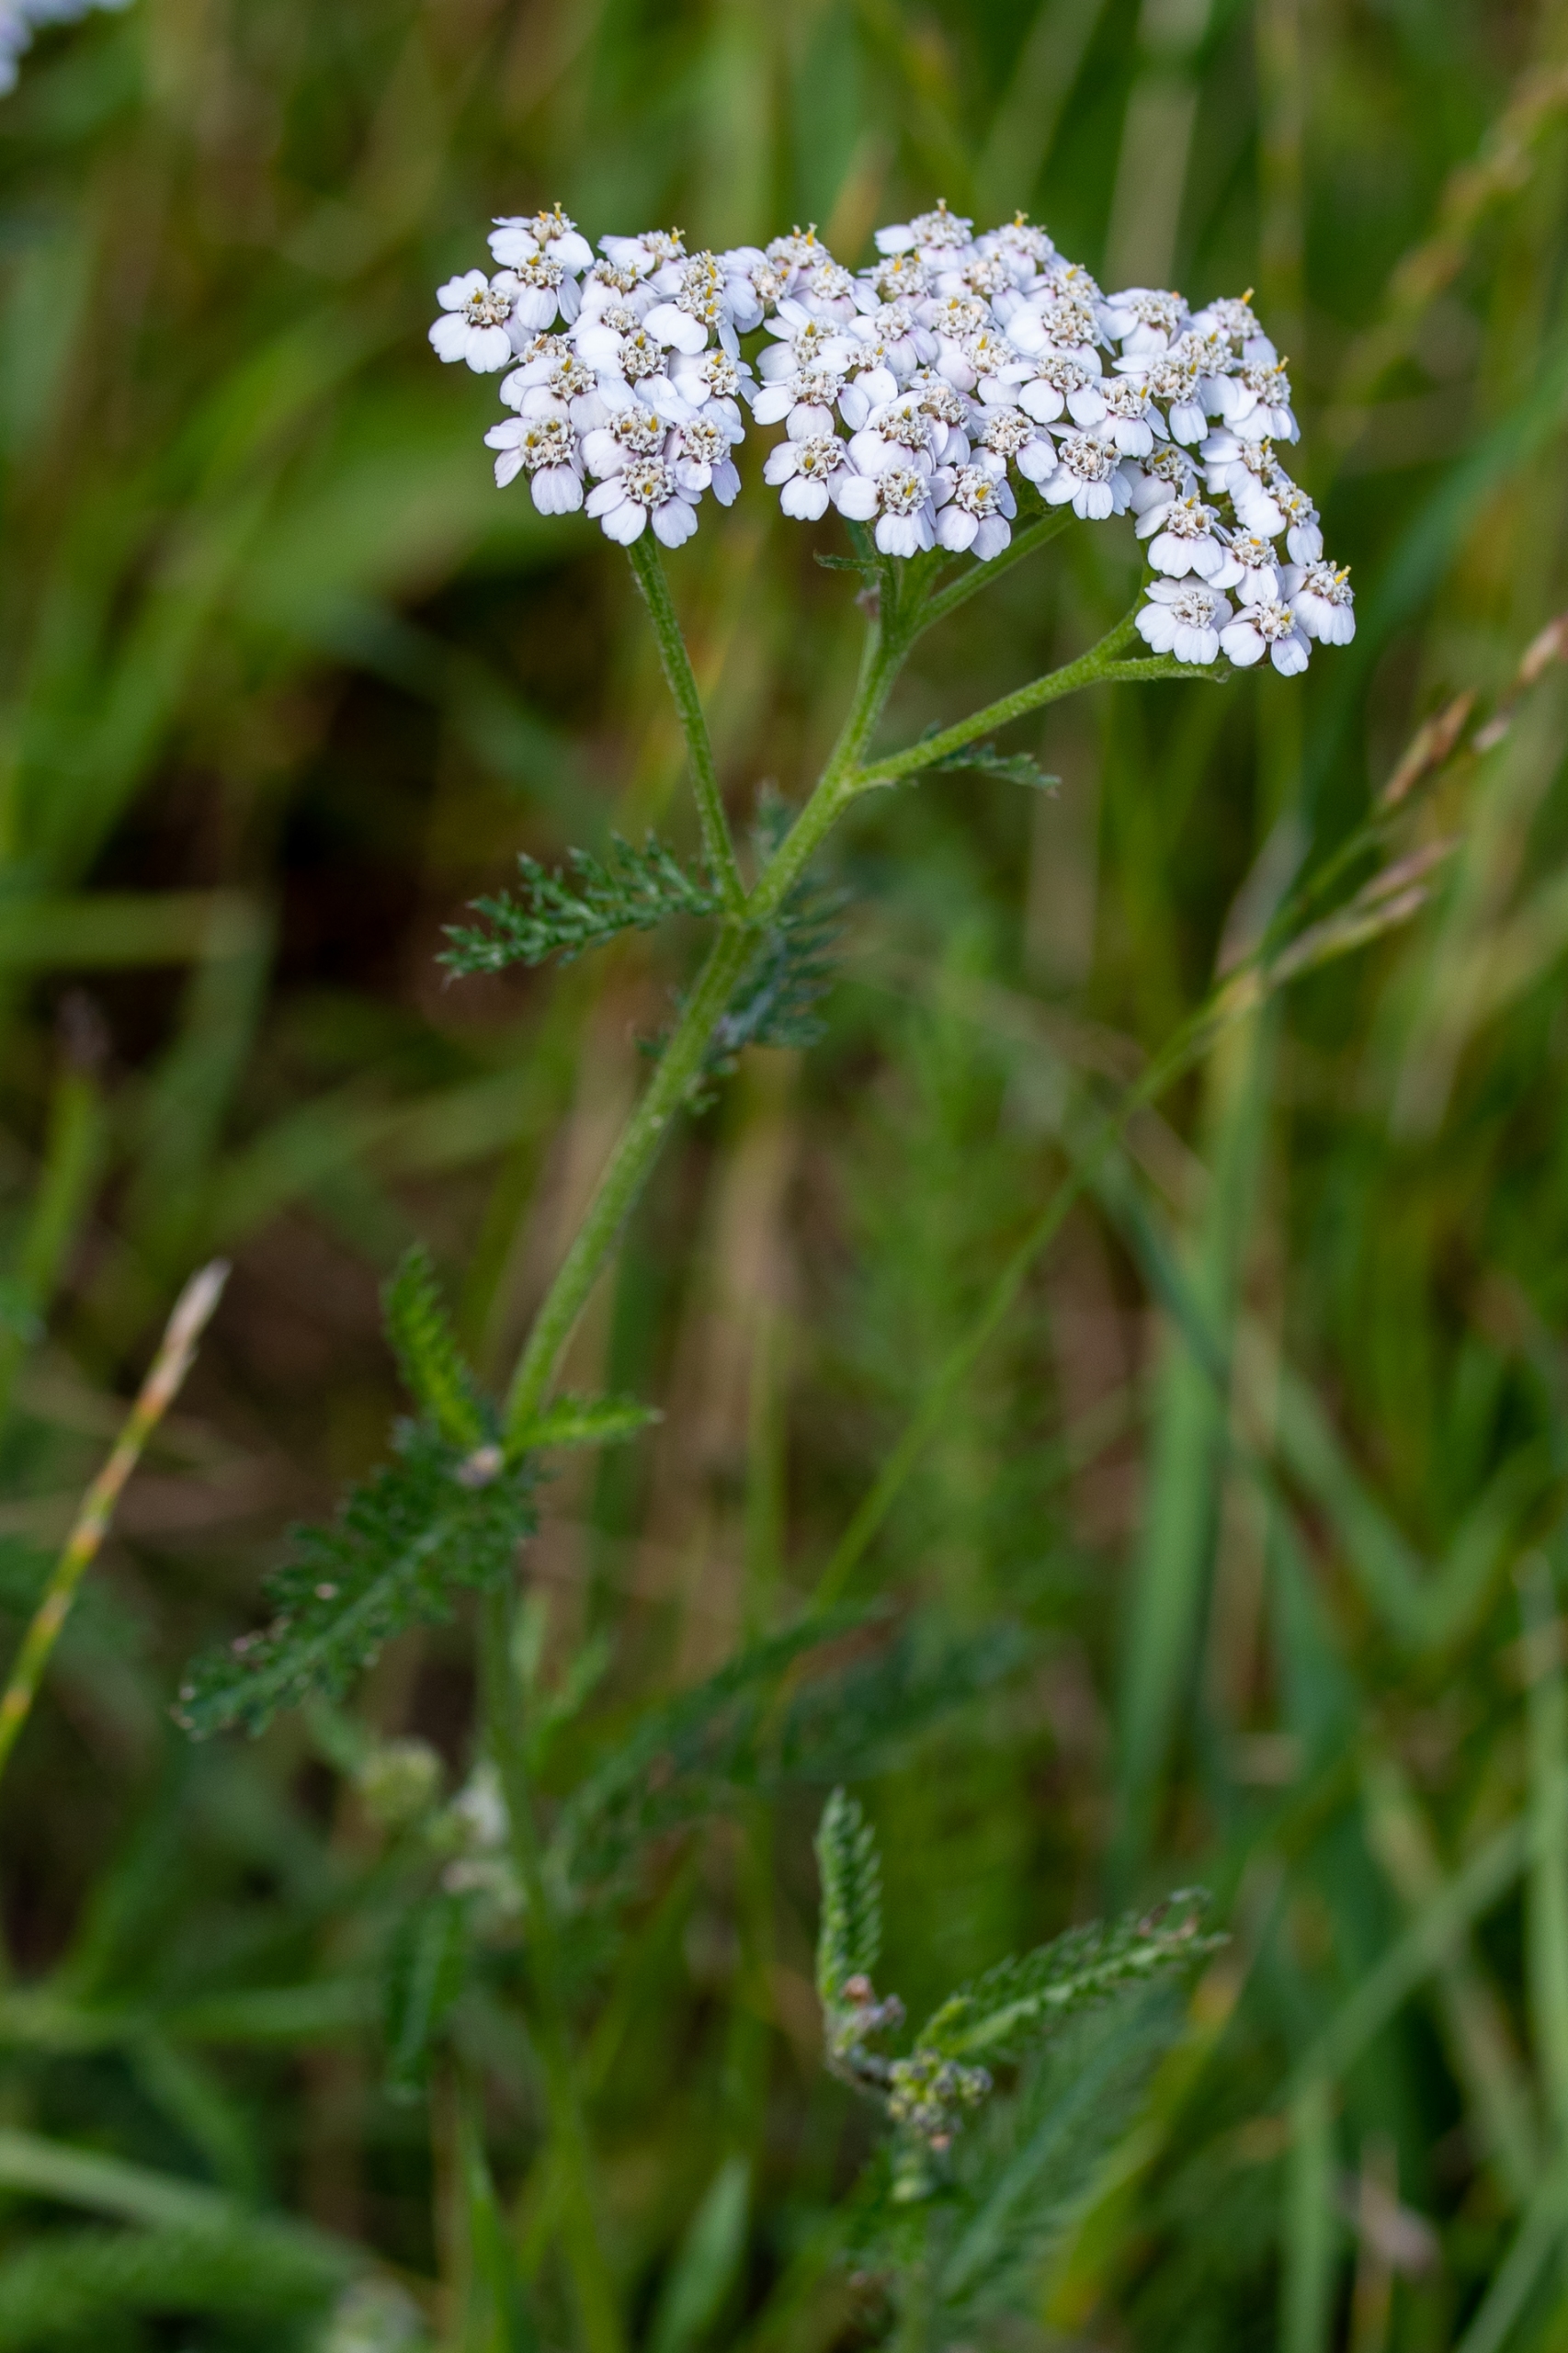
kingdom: Plantae
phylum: Tracheophyta
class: Magnoliopsida
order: Asterales
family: Asteraceae
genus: Achillea
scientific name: Achillea millefolium
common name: Almindelig røllike
